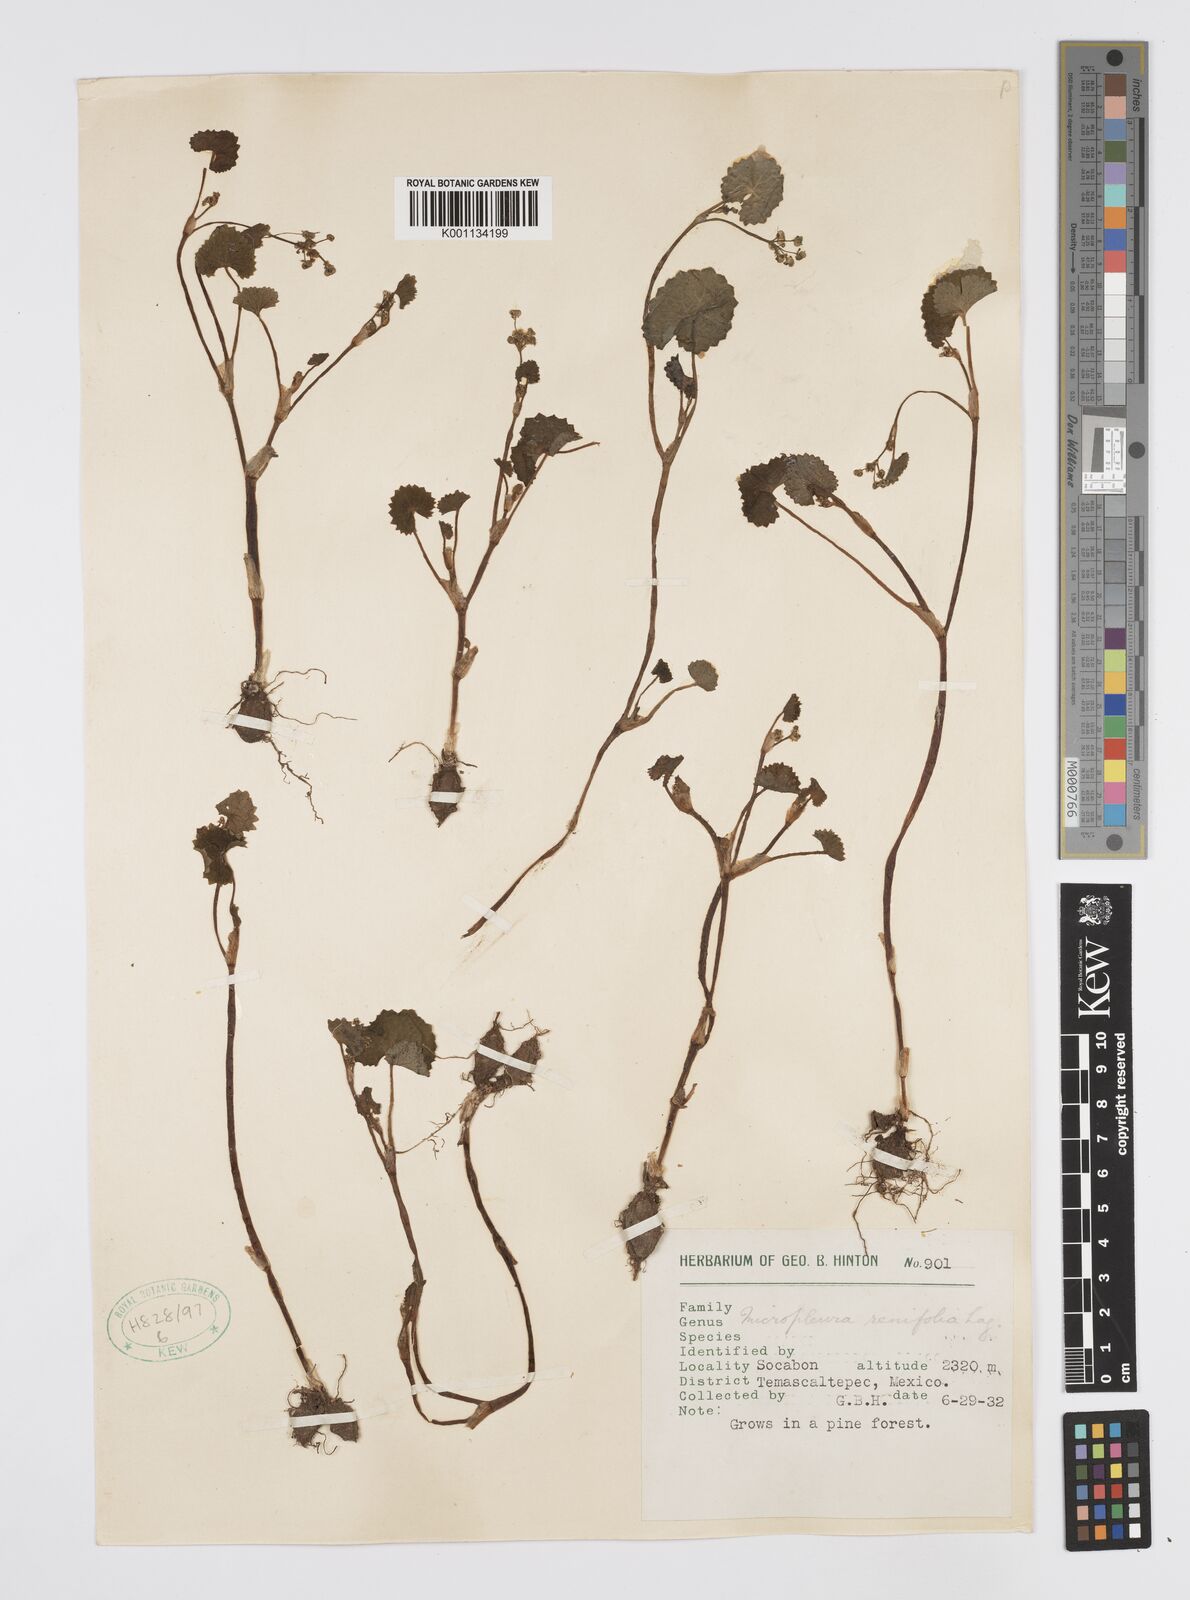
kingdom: Plantae
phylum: Tracheophyta
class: Magnoliopsida
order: Apiales
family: Apiaceae
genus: Micropleura
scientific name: Micropleura renifolia
